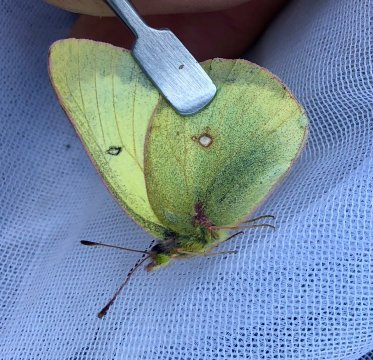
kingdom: Animalia
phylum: Arthropoda
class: Insecta
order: Lepidoptera
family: Pieridae
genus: Colias
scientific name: Colias gigantea
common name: Giant Sulphur
